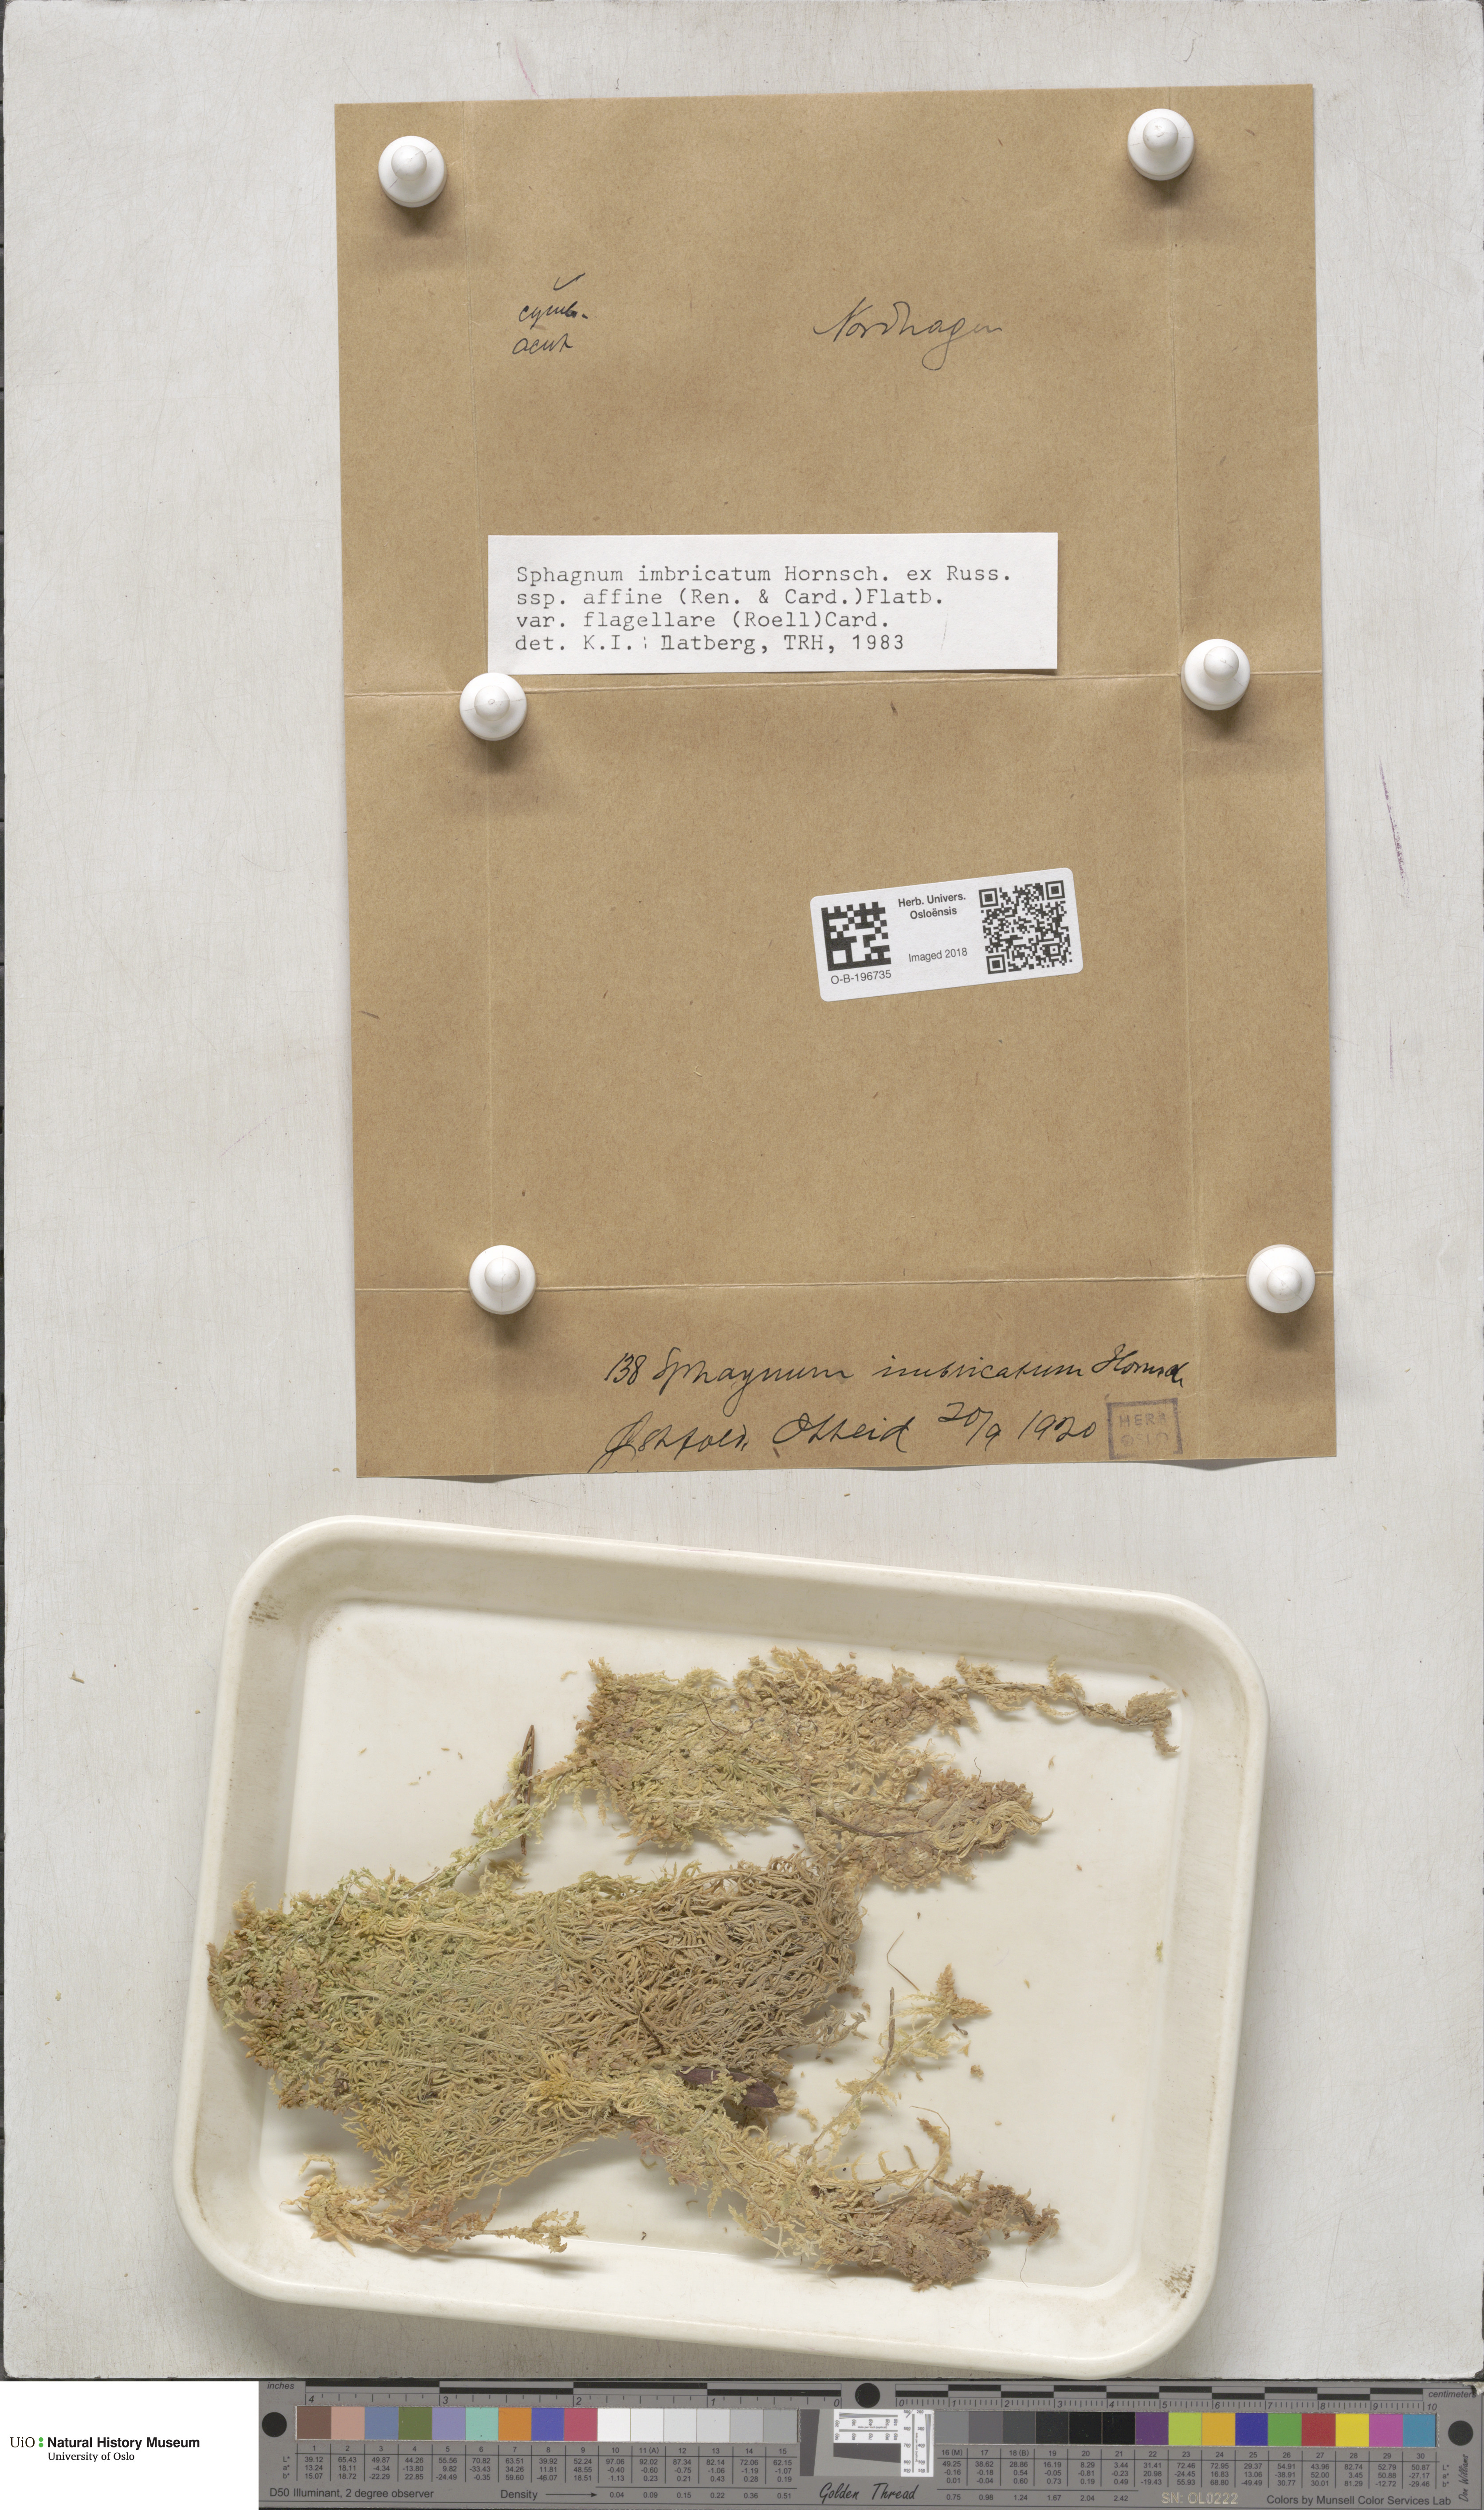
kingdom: Plantae
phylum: Bryophyta
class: Sphagnopsida
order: Sphagnales
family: Sphagnaceae
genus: Sphagnum
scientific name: Sphagnum affine
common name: Imbricate peat moss
